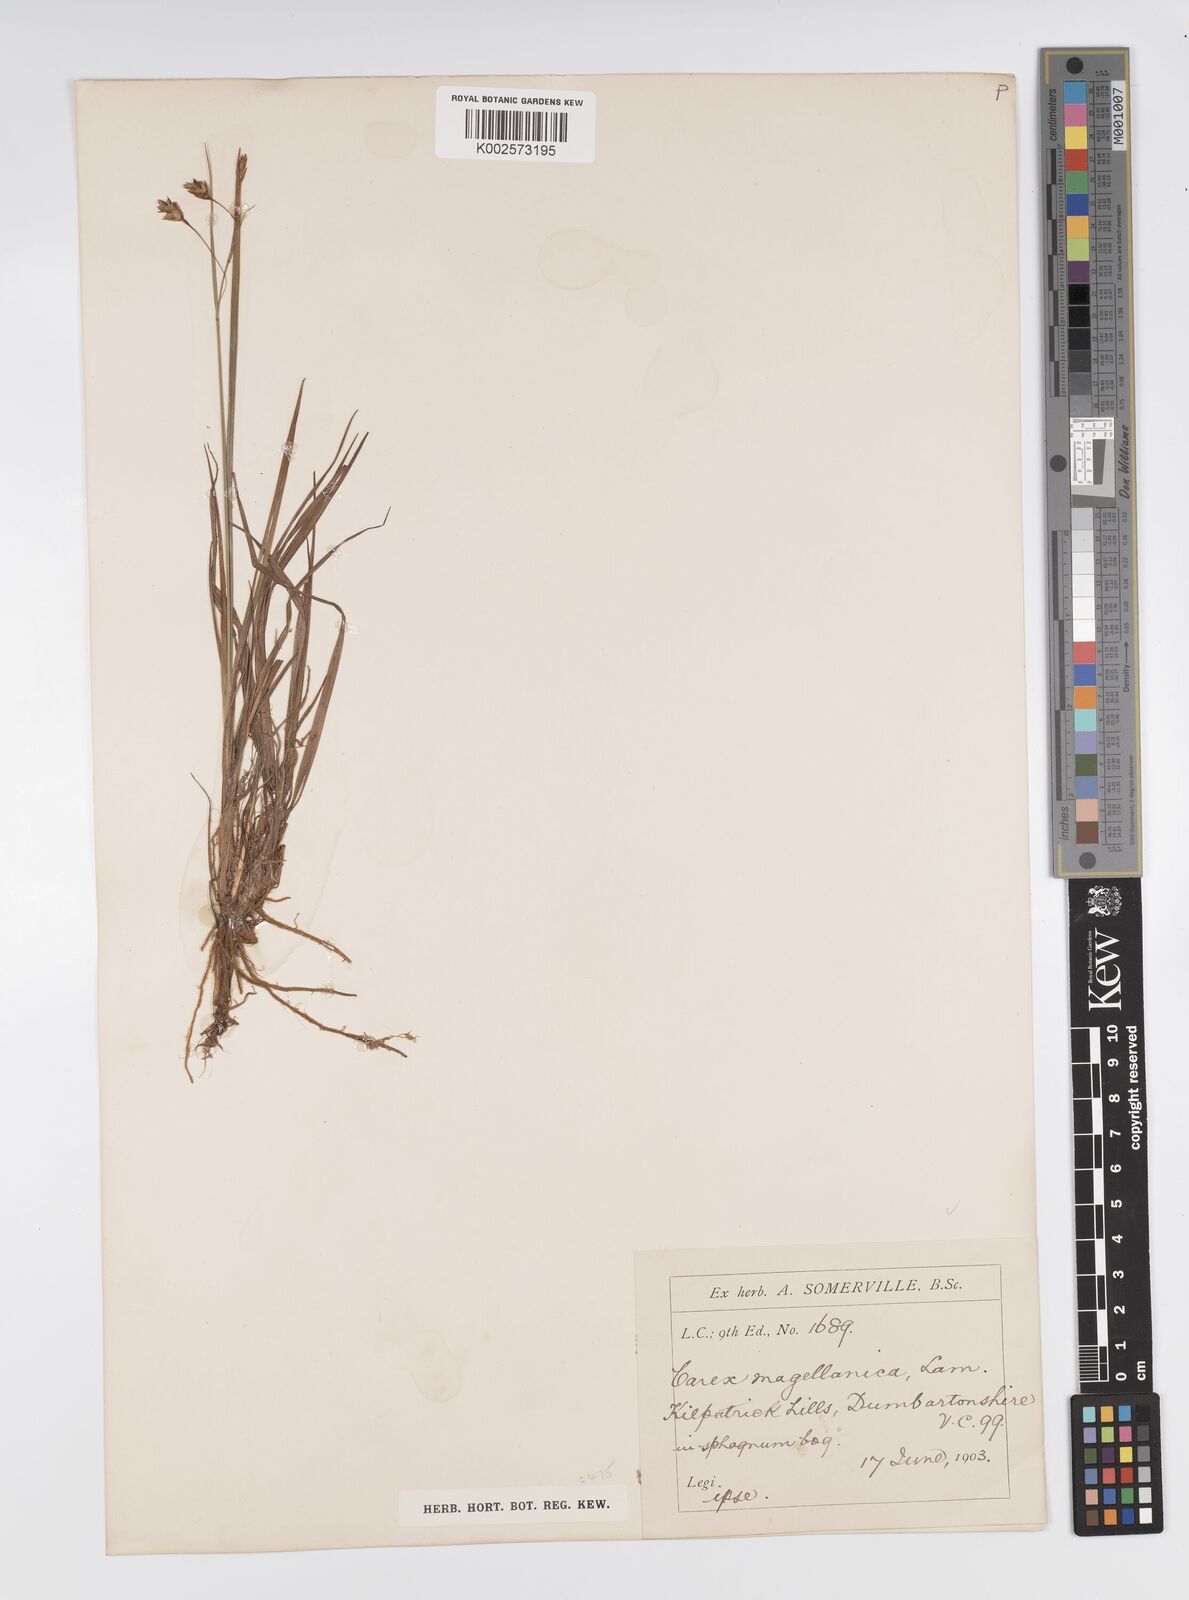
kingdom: Plantae
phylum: Tracheophyta
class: Liliopsida
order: Poales
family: Cyperaceae
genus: Carex
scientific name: Carex magellanica
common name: Bog sedge
